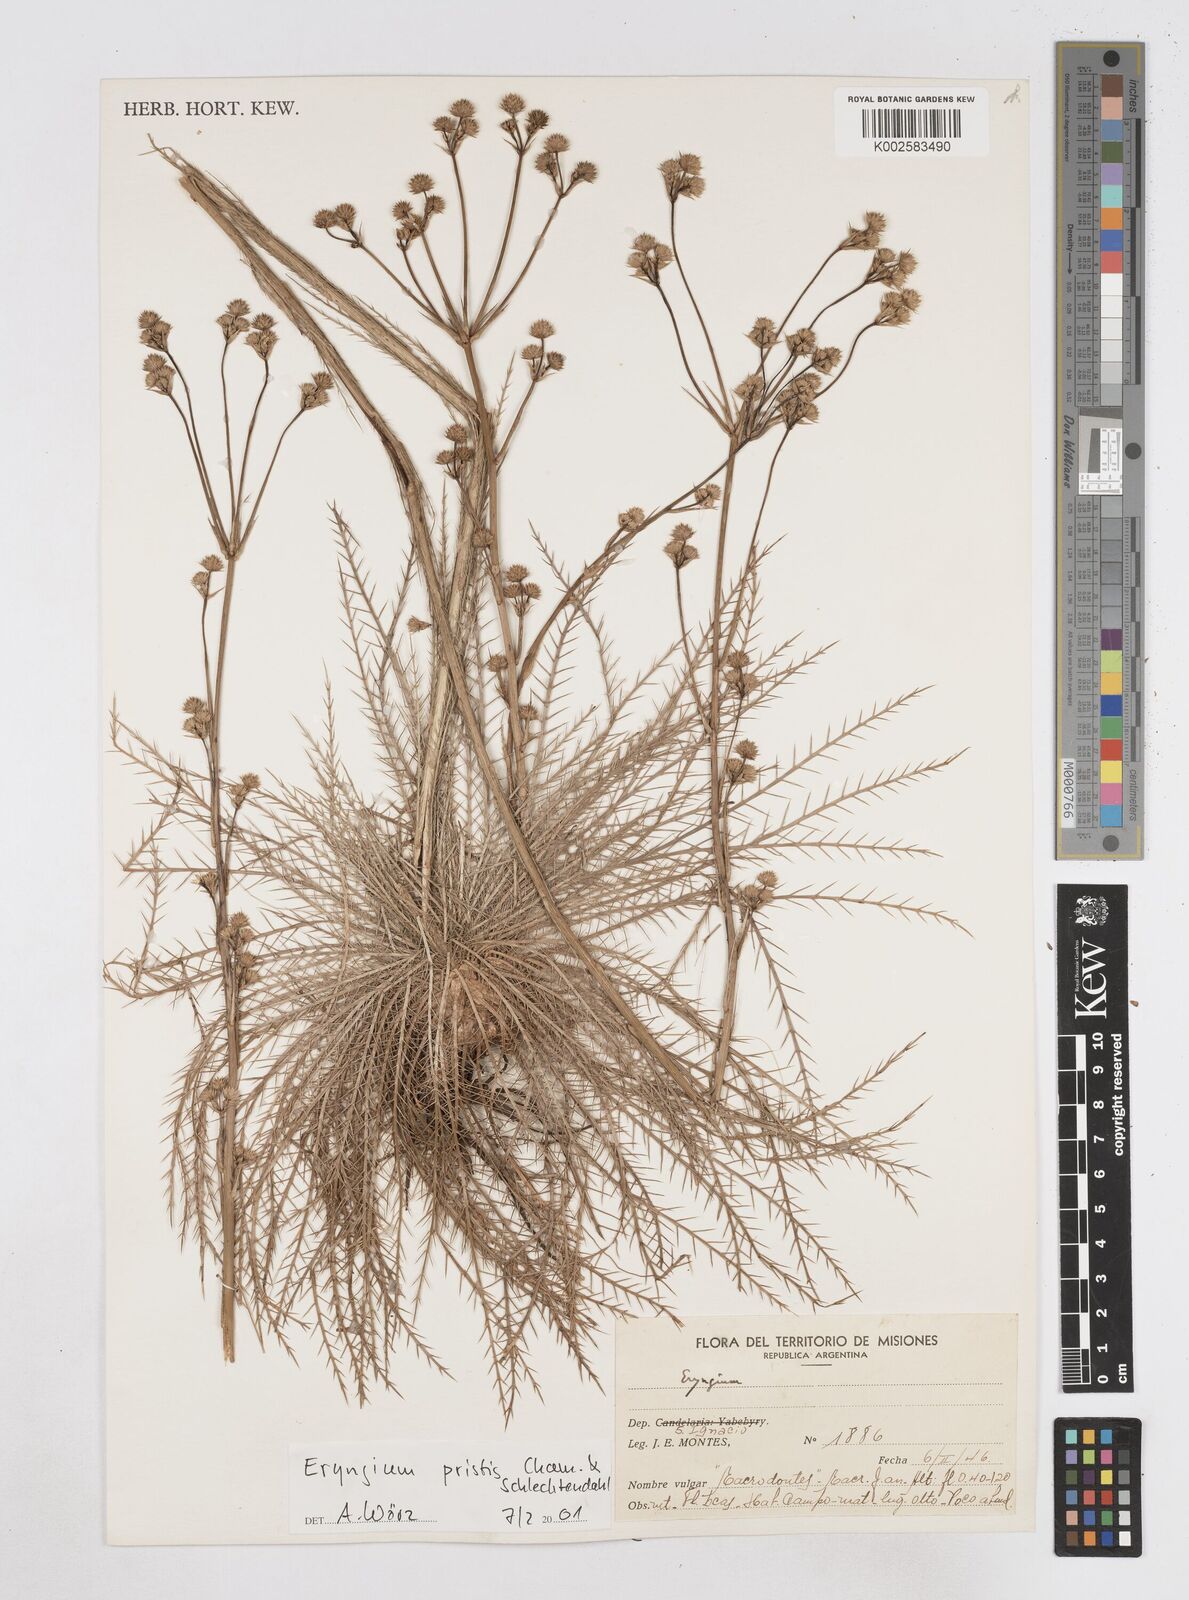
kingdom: Plantae
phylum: Tracheophyta
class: Magnoliopsida
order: Apiales
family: Apiaceae
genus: Eryngium
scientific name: Eryngium pristis
